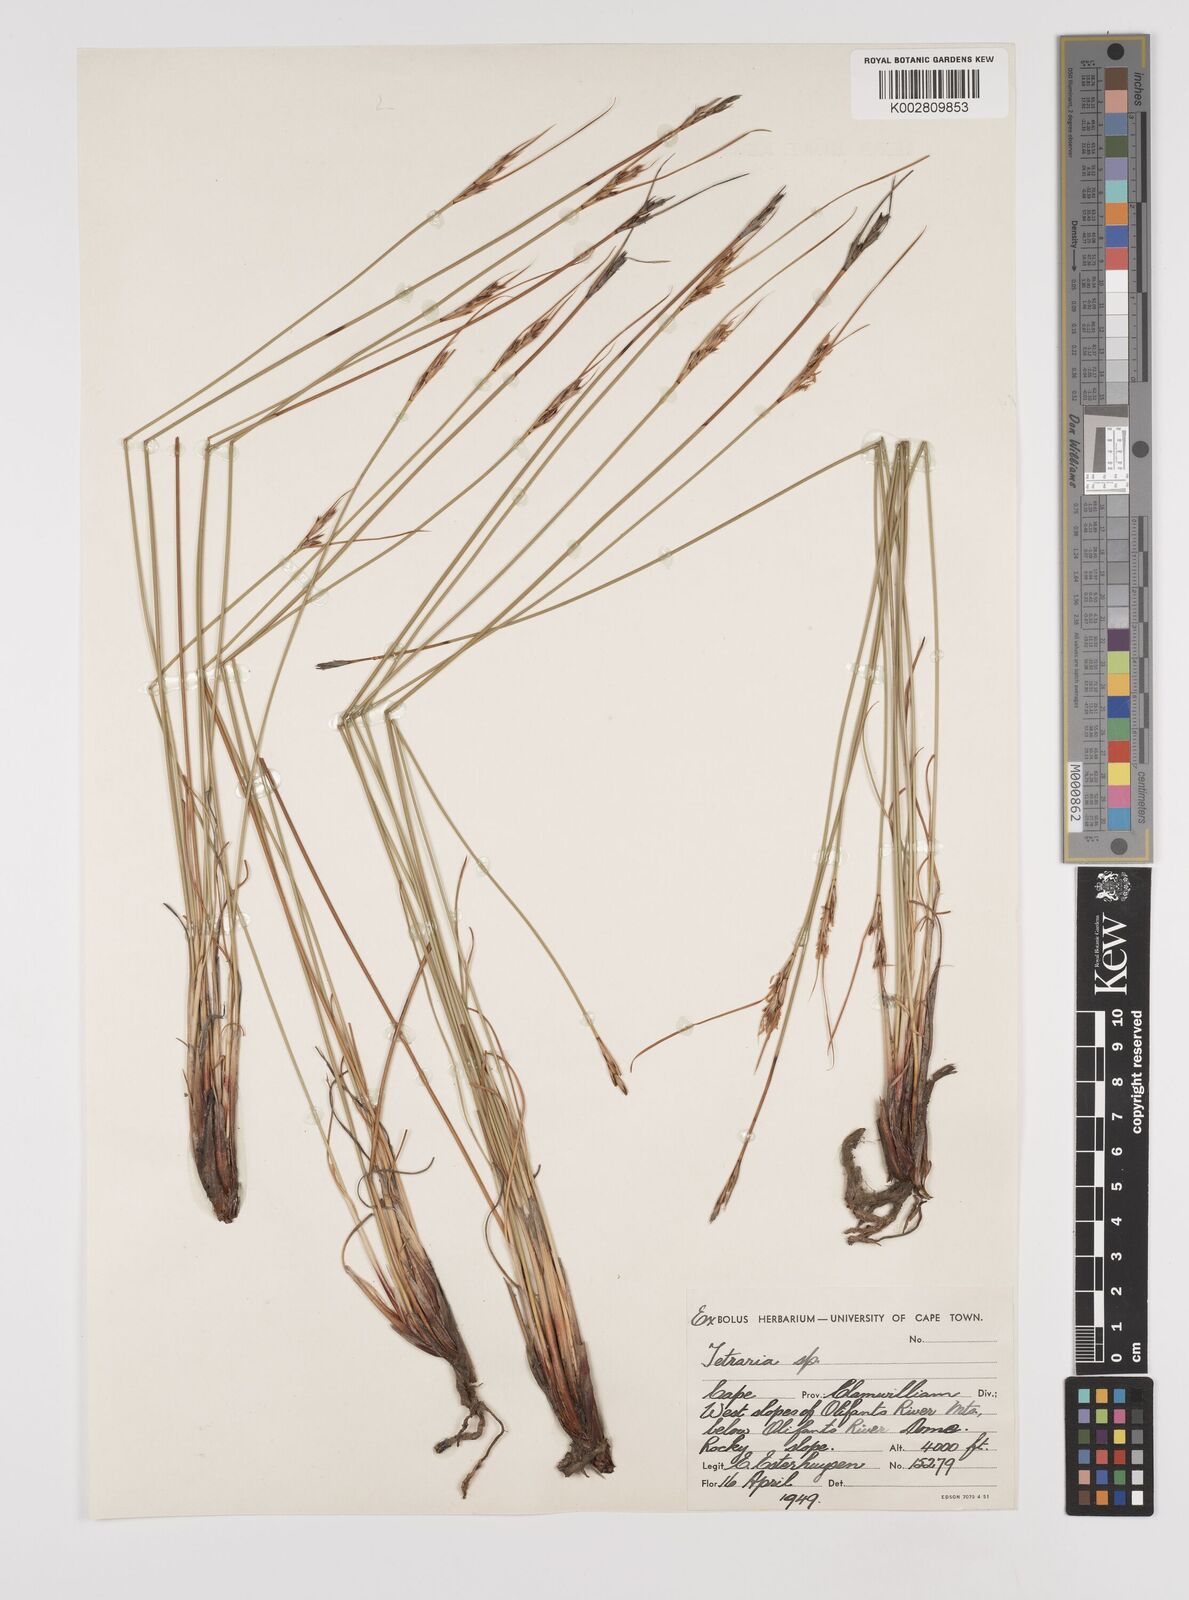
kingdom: Plantae
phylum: Tracheophyta
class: Liliopsida
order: Poales
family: Cyperaceae
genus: Schoenus
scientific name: Schoenus pseudoloreus
